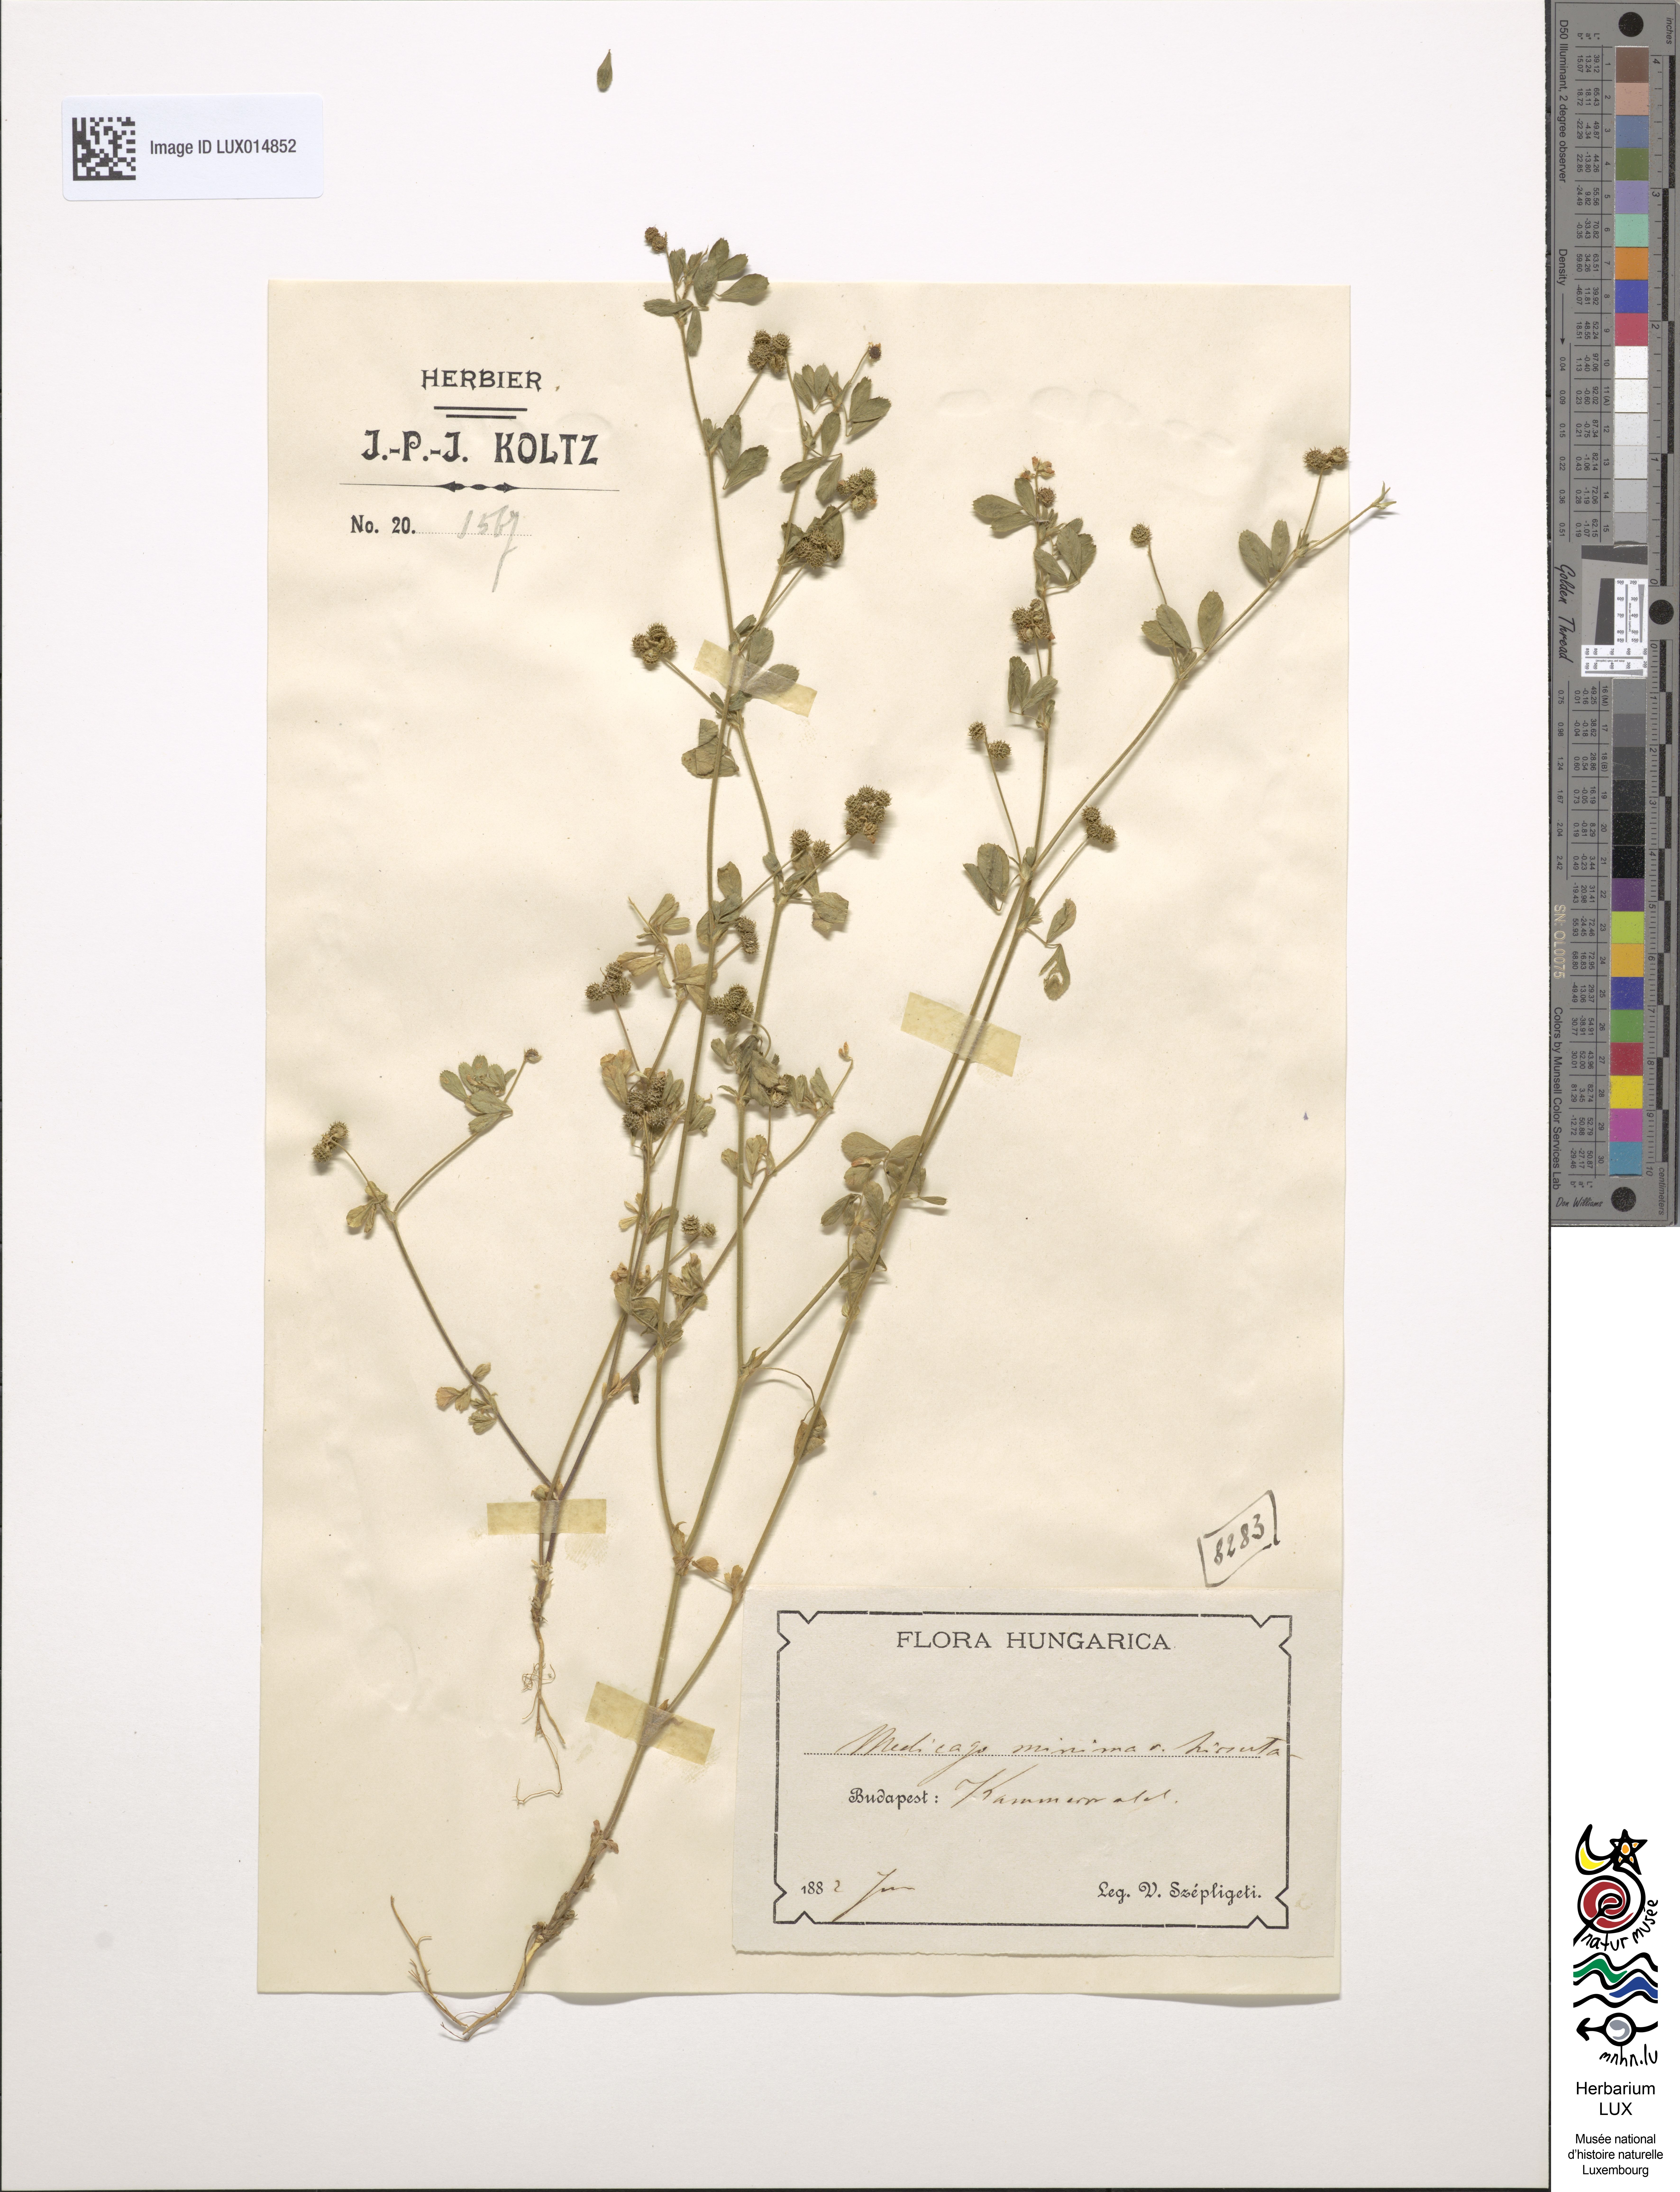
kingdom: Plantae
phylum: Tracheophyta
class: Magnoliopsida
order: Fabales
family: Fabaceae
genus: Medicago
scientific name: Medicago minima
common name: Little bur-clover
